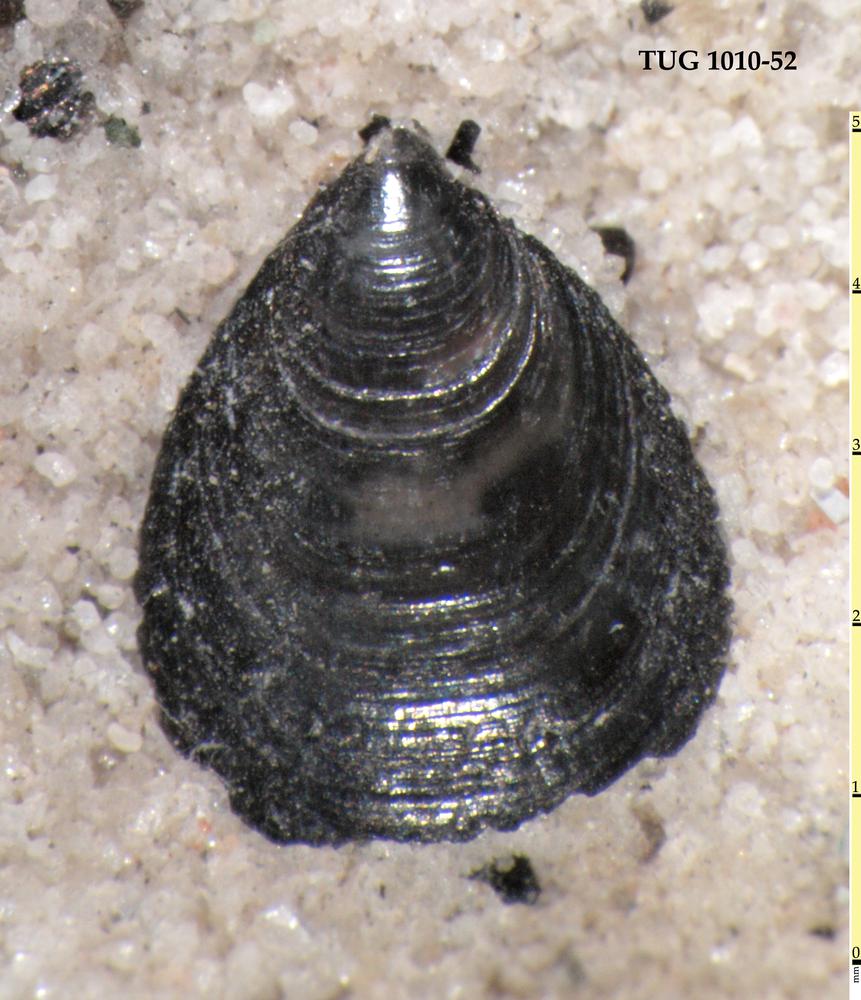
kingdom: Animalia
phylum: Brachiopoda
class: Lingulata
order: Lingulida
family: Obolidae
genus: Schmidtites
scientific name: Schmidtites Schmidtia celata
